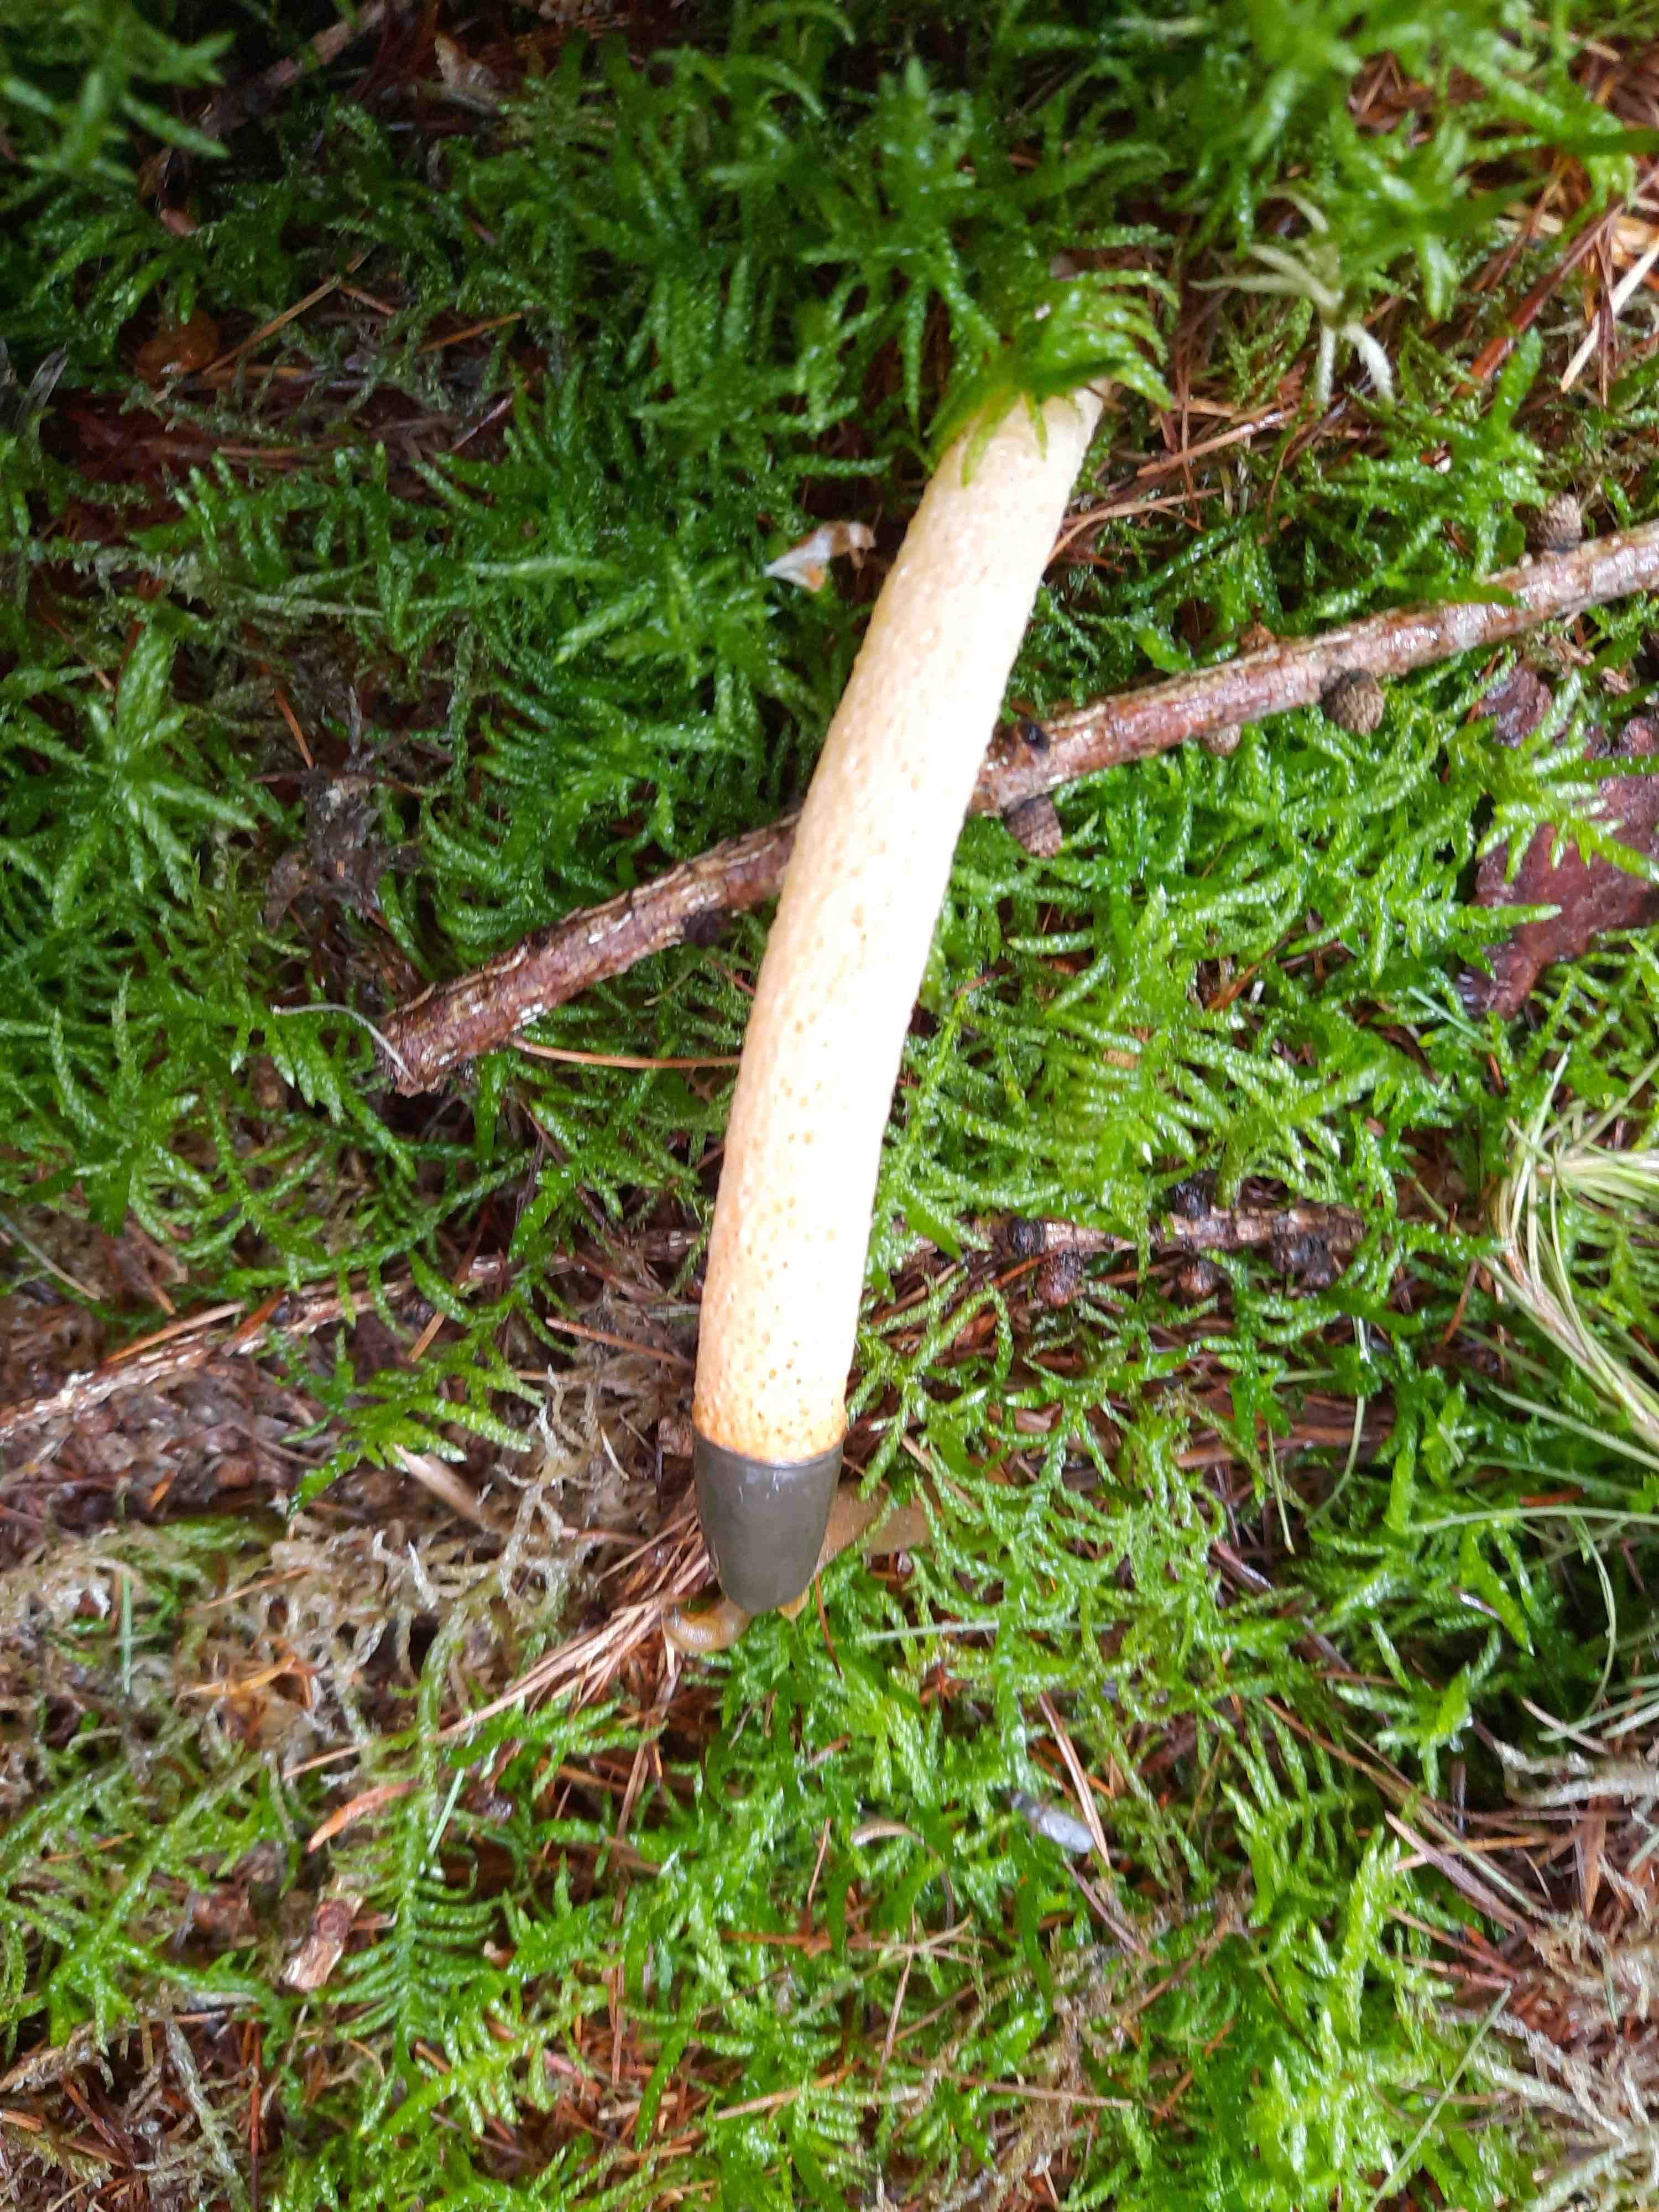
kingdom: Fungi
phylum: Basidiomycota
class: Agaricomycetes
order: Phallales
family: Phallaceae
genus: Mutinus
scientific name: Mutinus caninus
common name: hunde-stinksvamp
